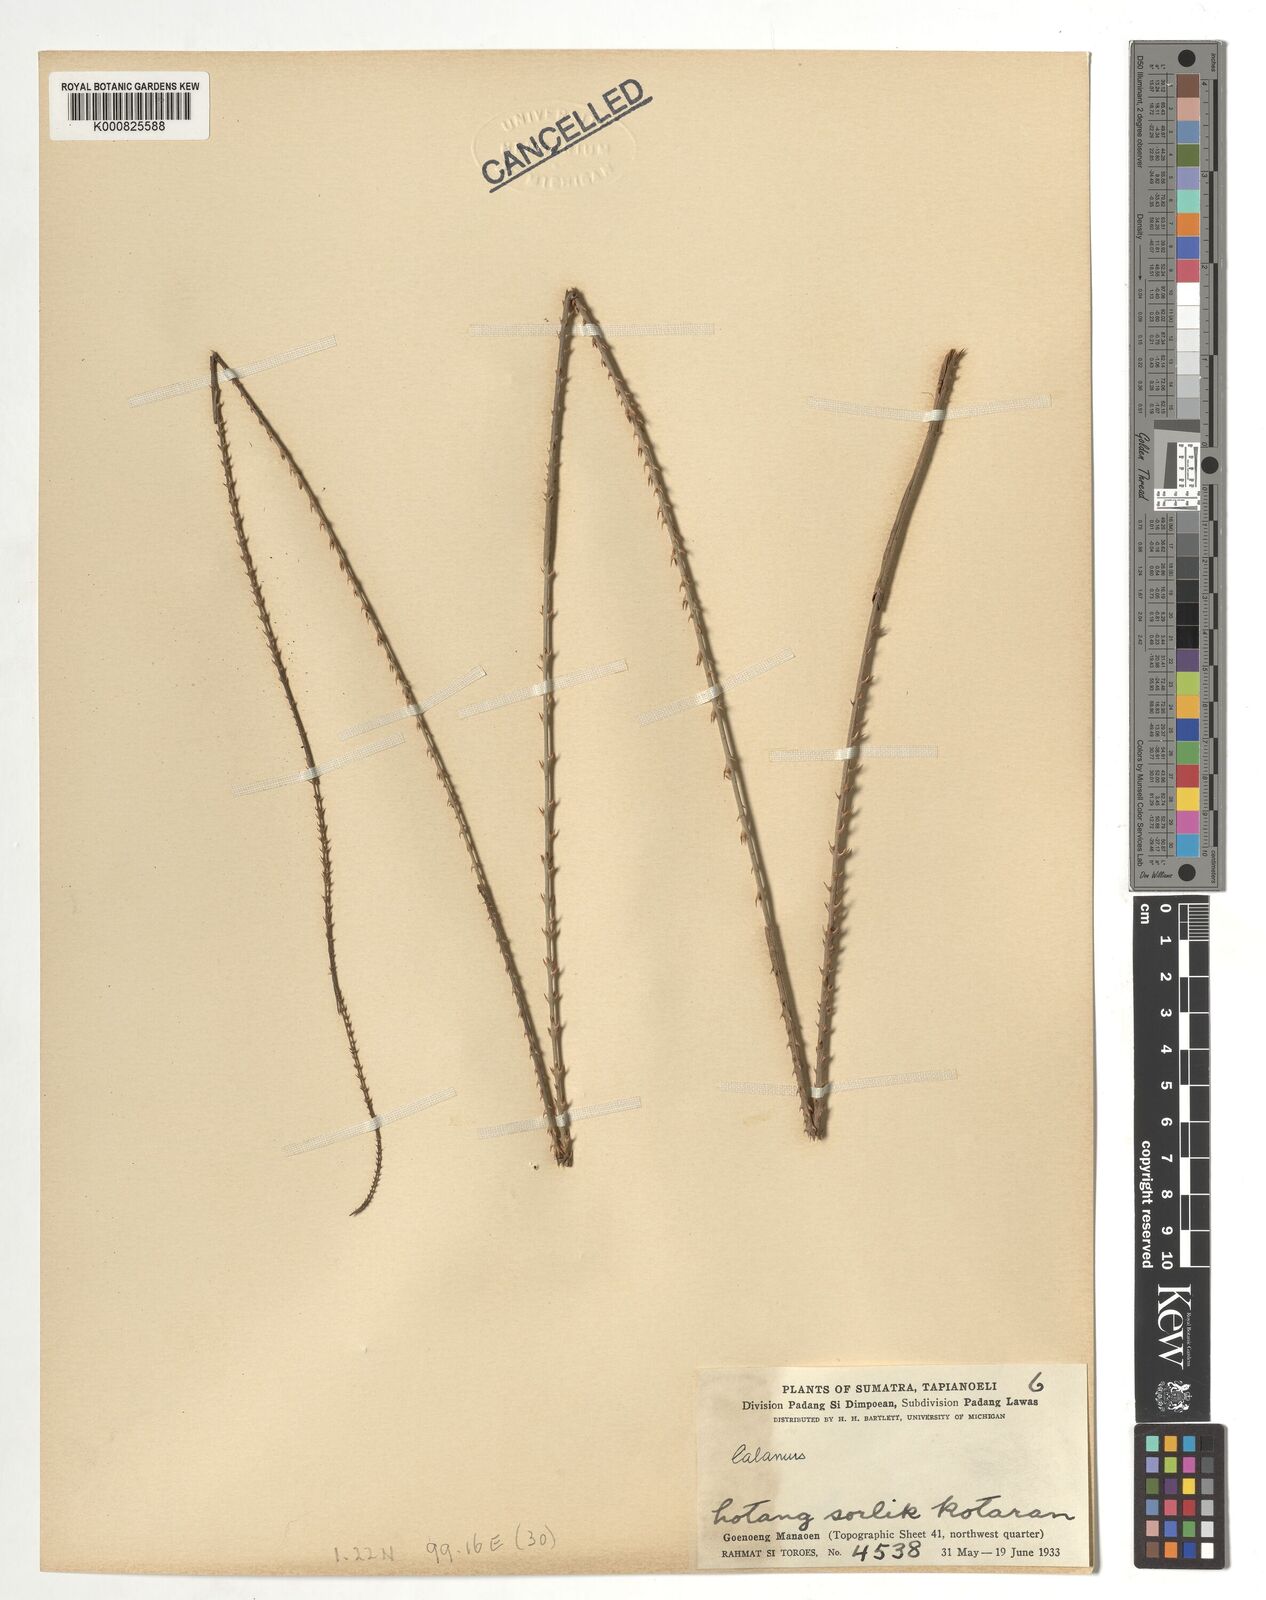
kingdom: Plantae
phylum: Tracheophyta
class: Liliopsida
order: Arecales
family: Arecaceae
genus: Calamus
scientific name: Calamus
